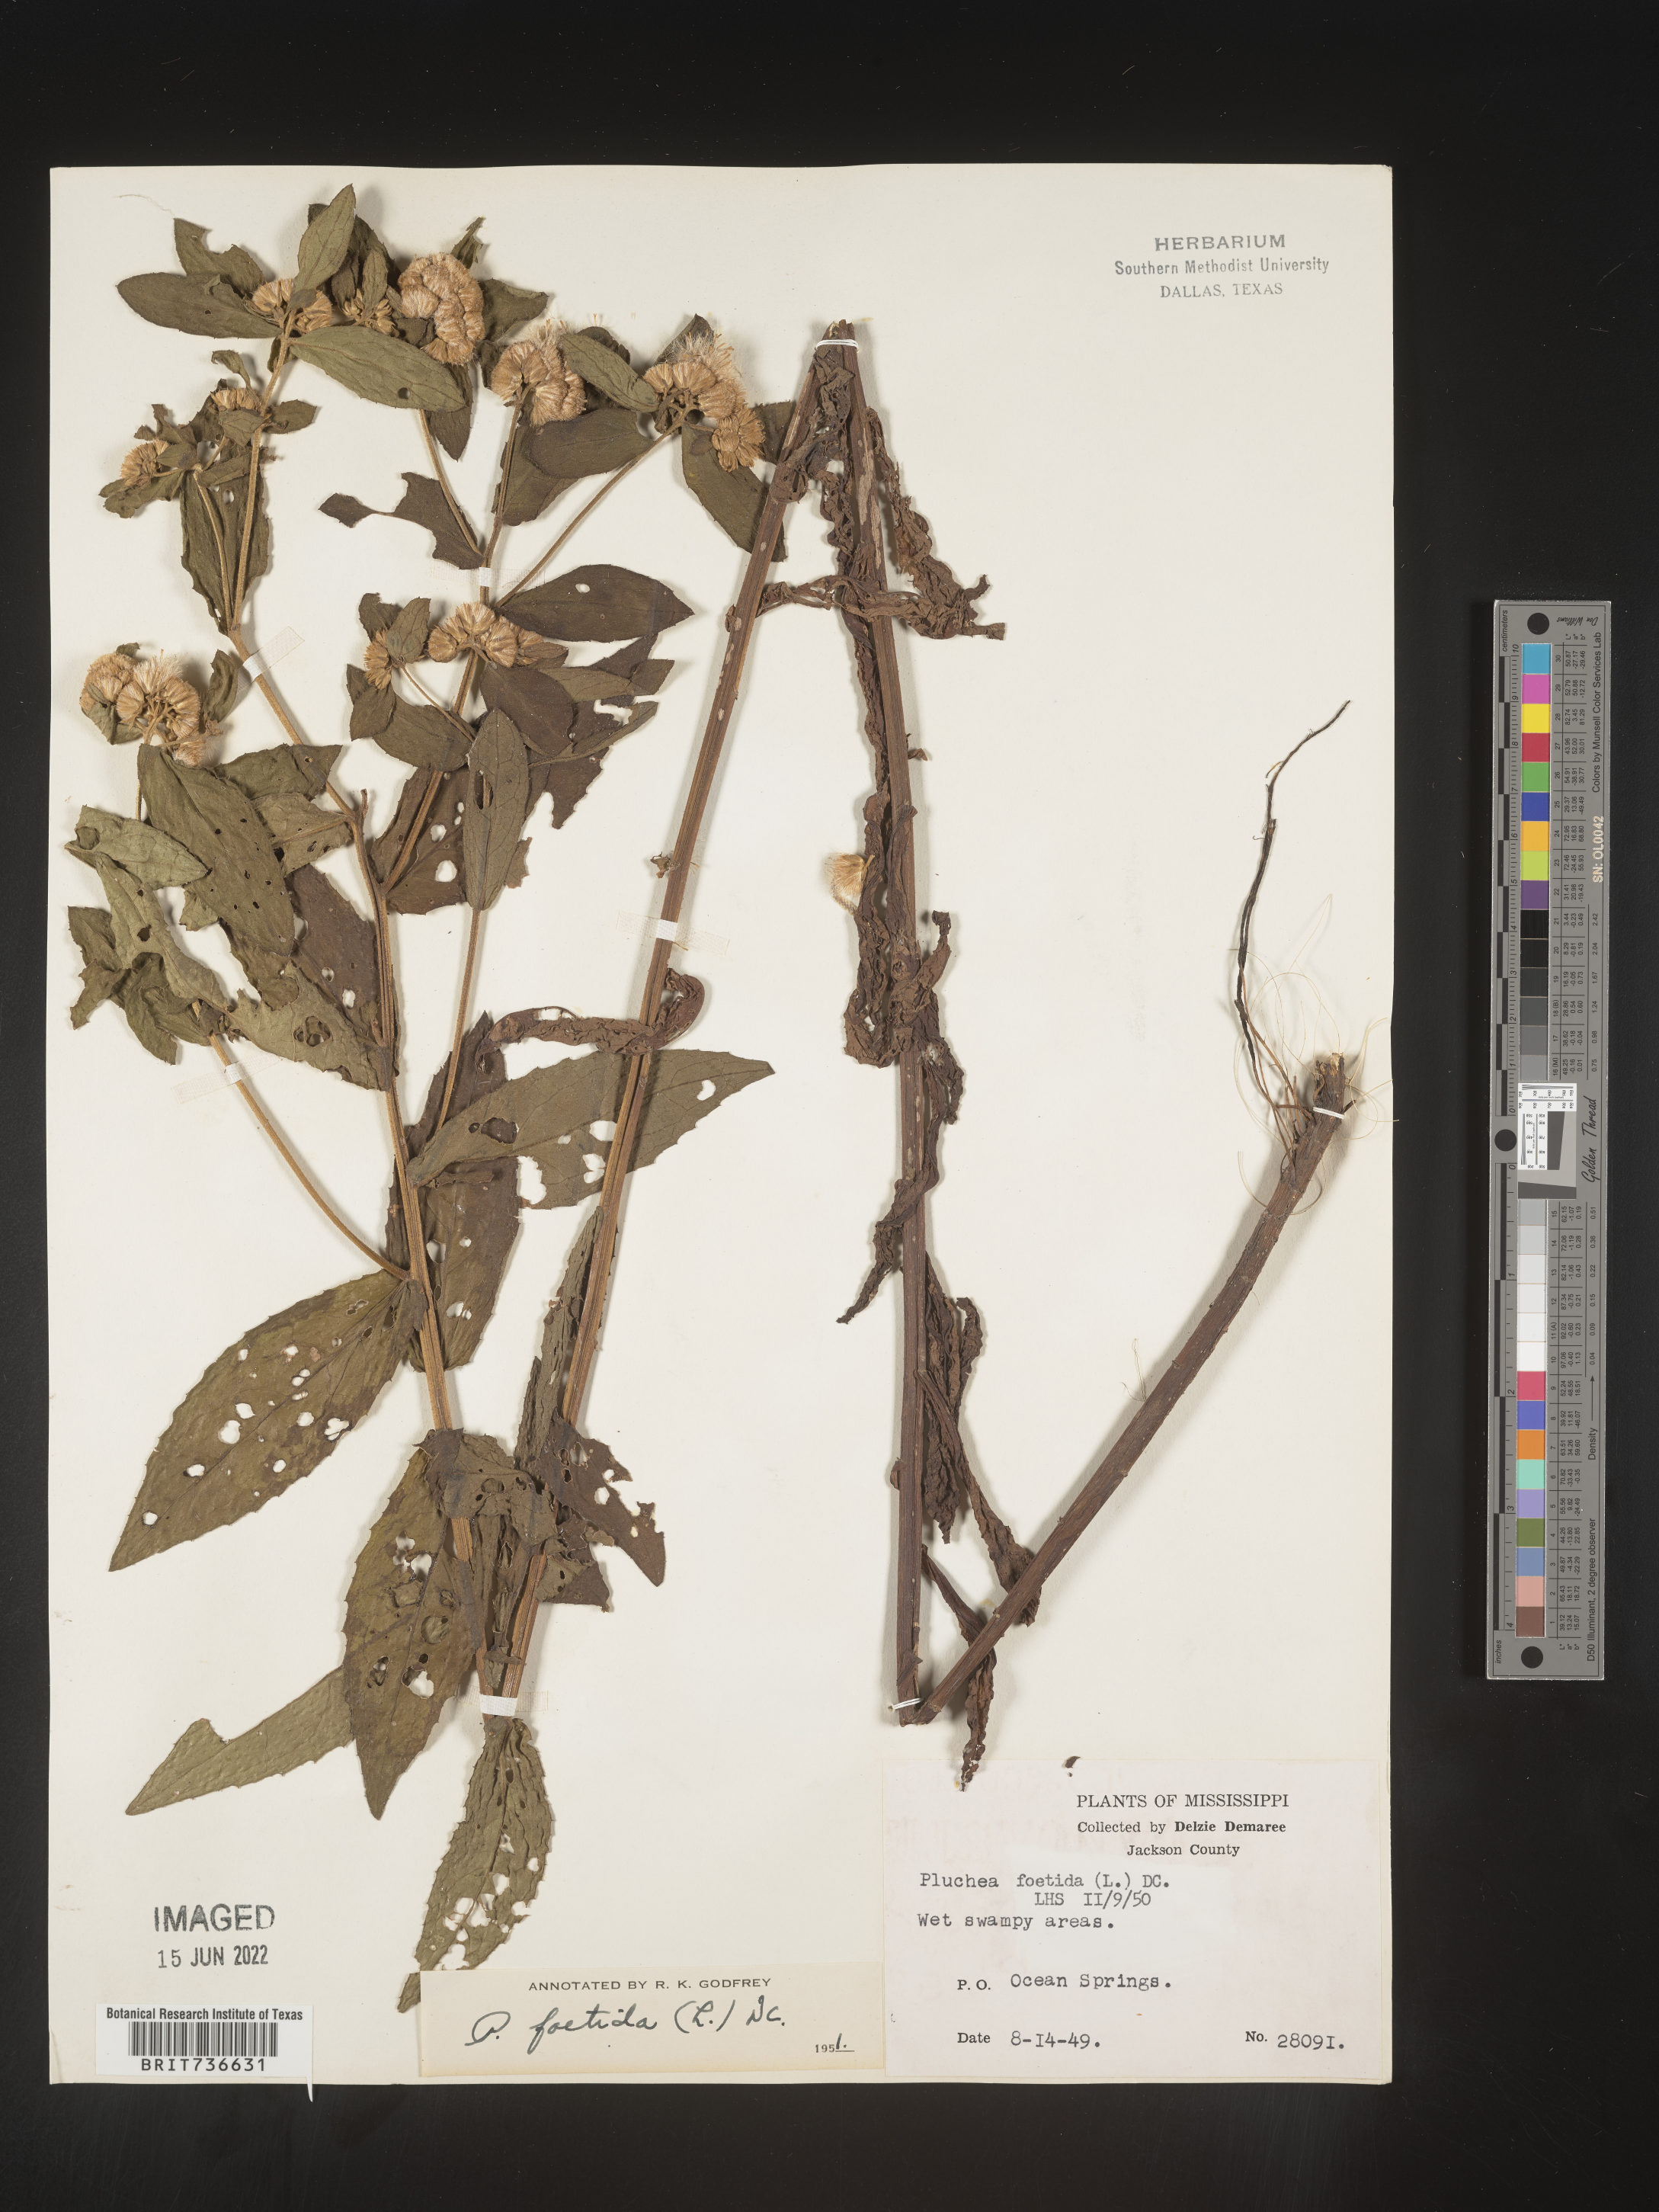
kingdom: Plantae
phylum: Tracheophyta
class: Magnoliopsida
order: Asterales
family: Asteraceae
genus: Pluchea
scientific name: Pluchea foetida
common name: Stinking camphorweed
